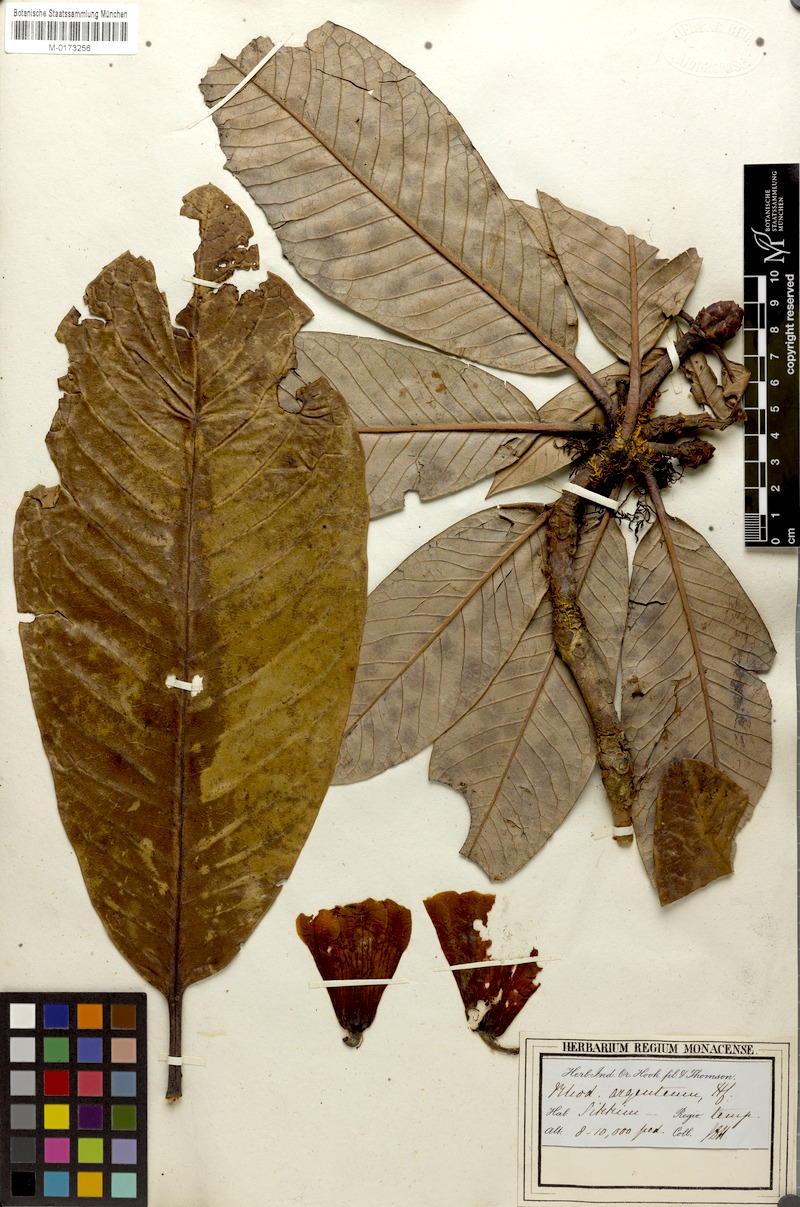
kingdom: Plantae
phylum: Tracheophyta
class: Magnoliopsida
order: Ericales
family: Ericaceae
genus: Rhododendron
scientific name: Rhododendron grande
